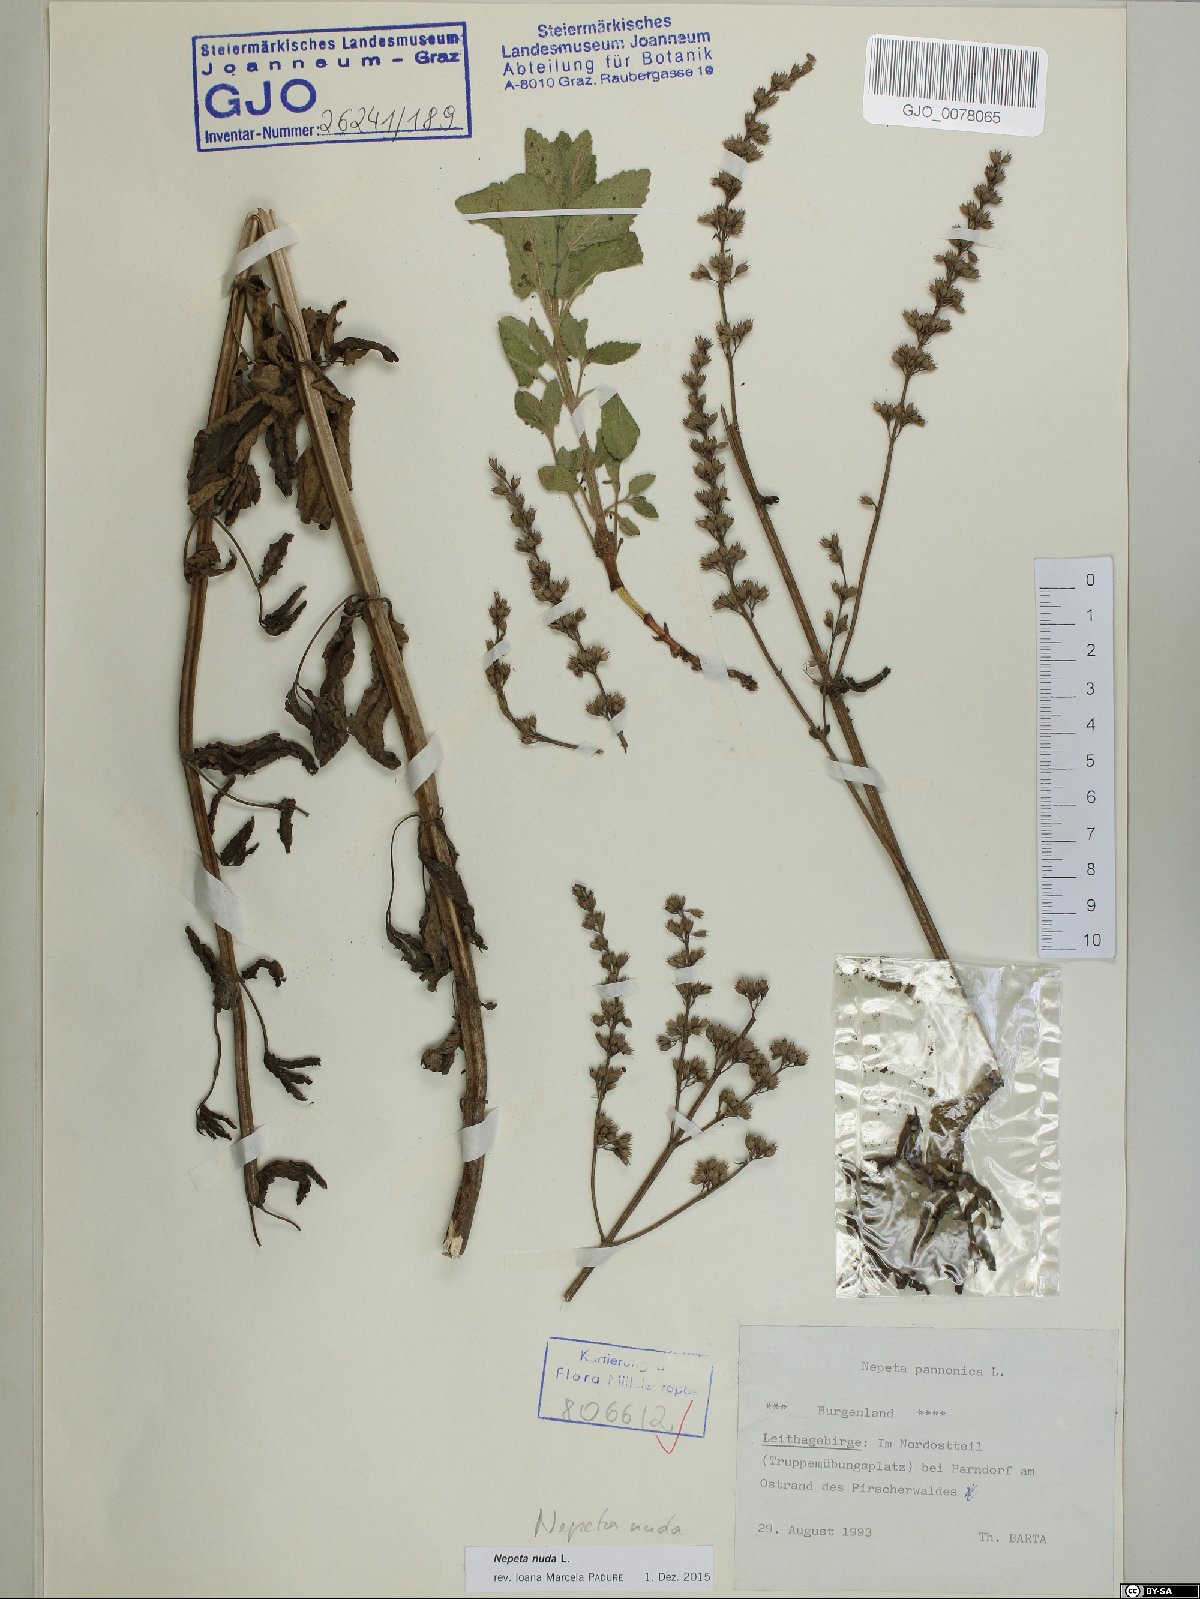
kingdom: Plantae
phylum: Tracheophyta
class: Magnoliopsida
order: Lamiales
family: Lamiaceae
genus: Nepeta
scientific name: Nepeta nuda
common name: Hairless catmint
